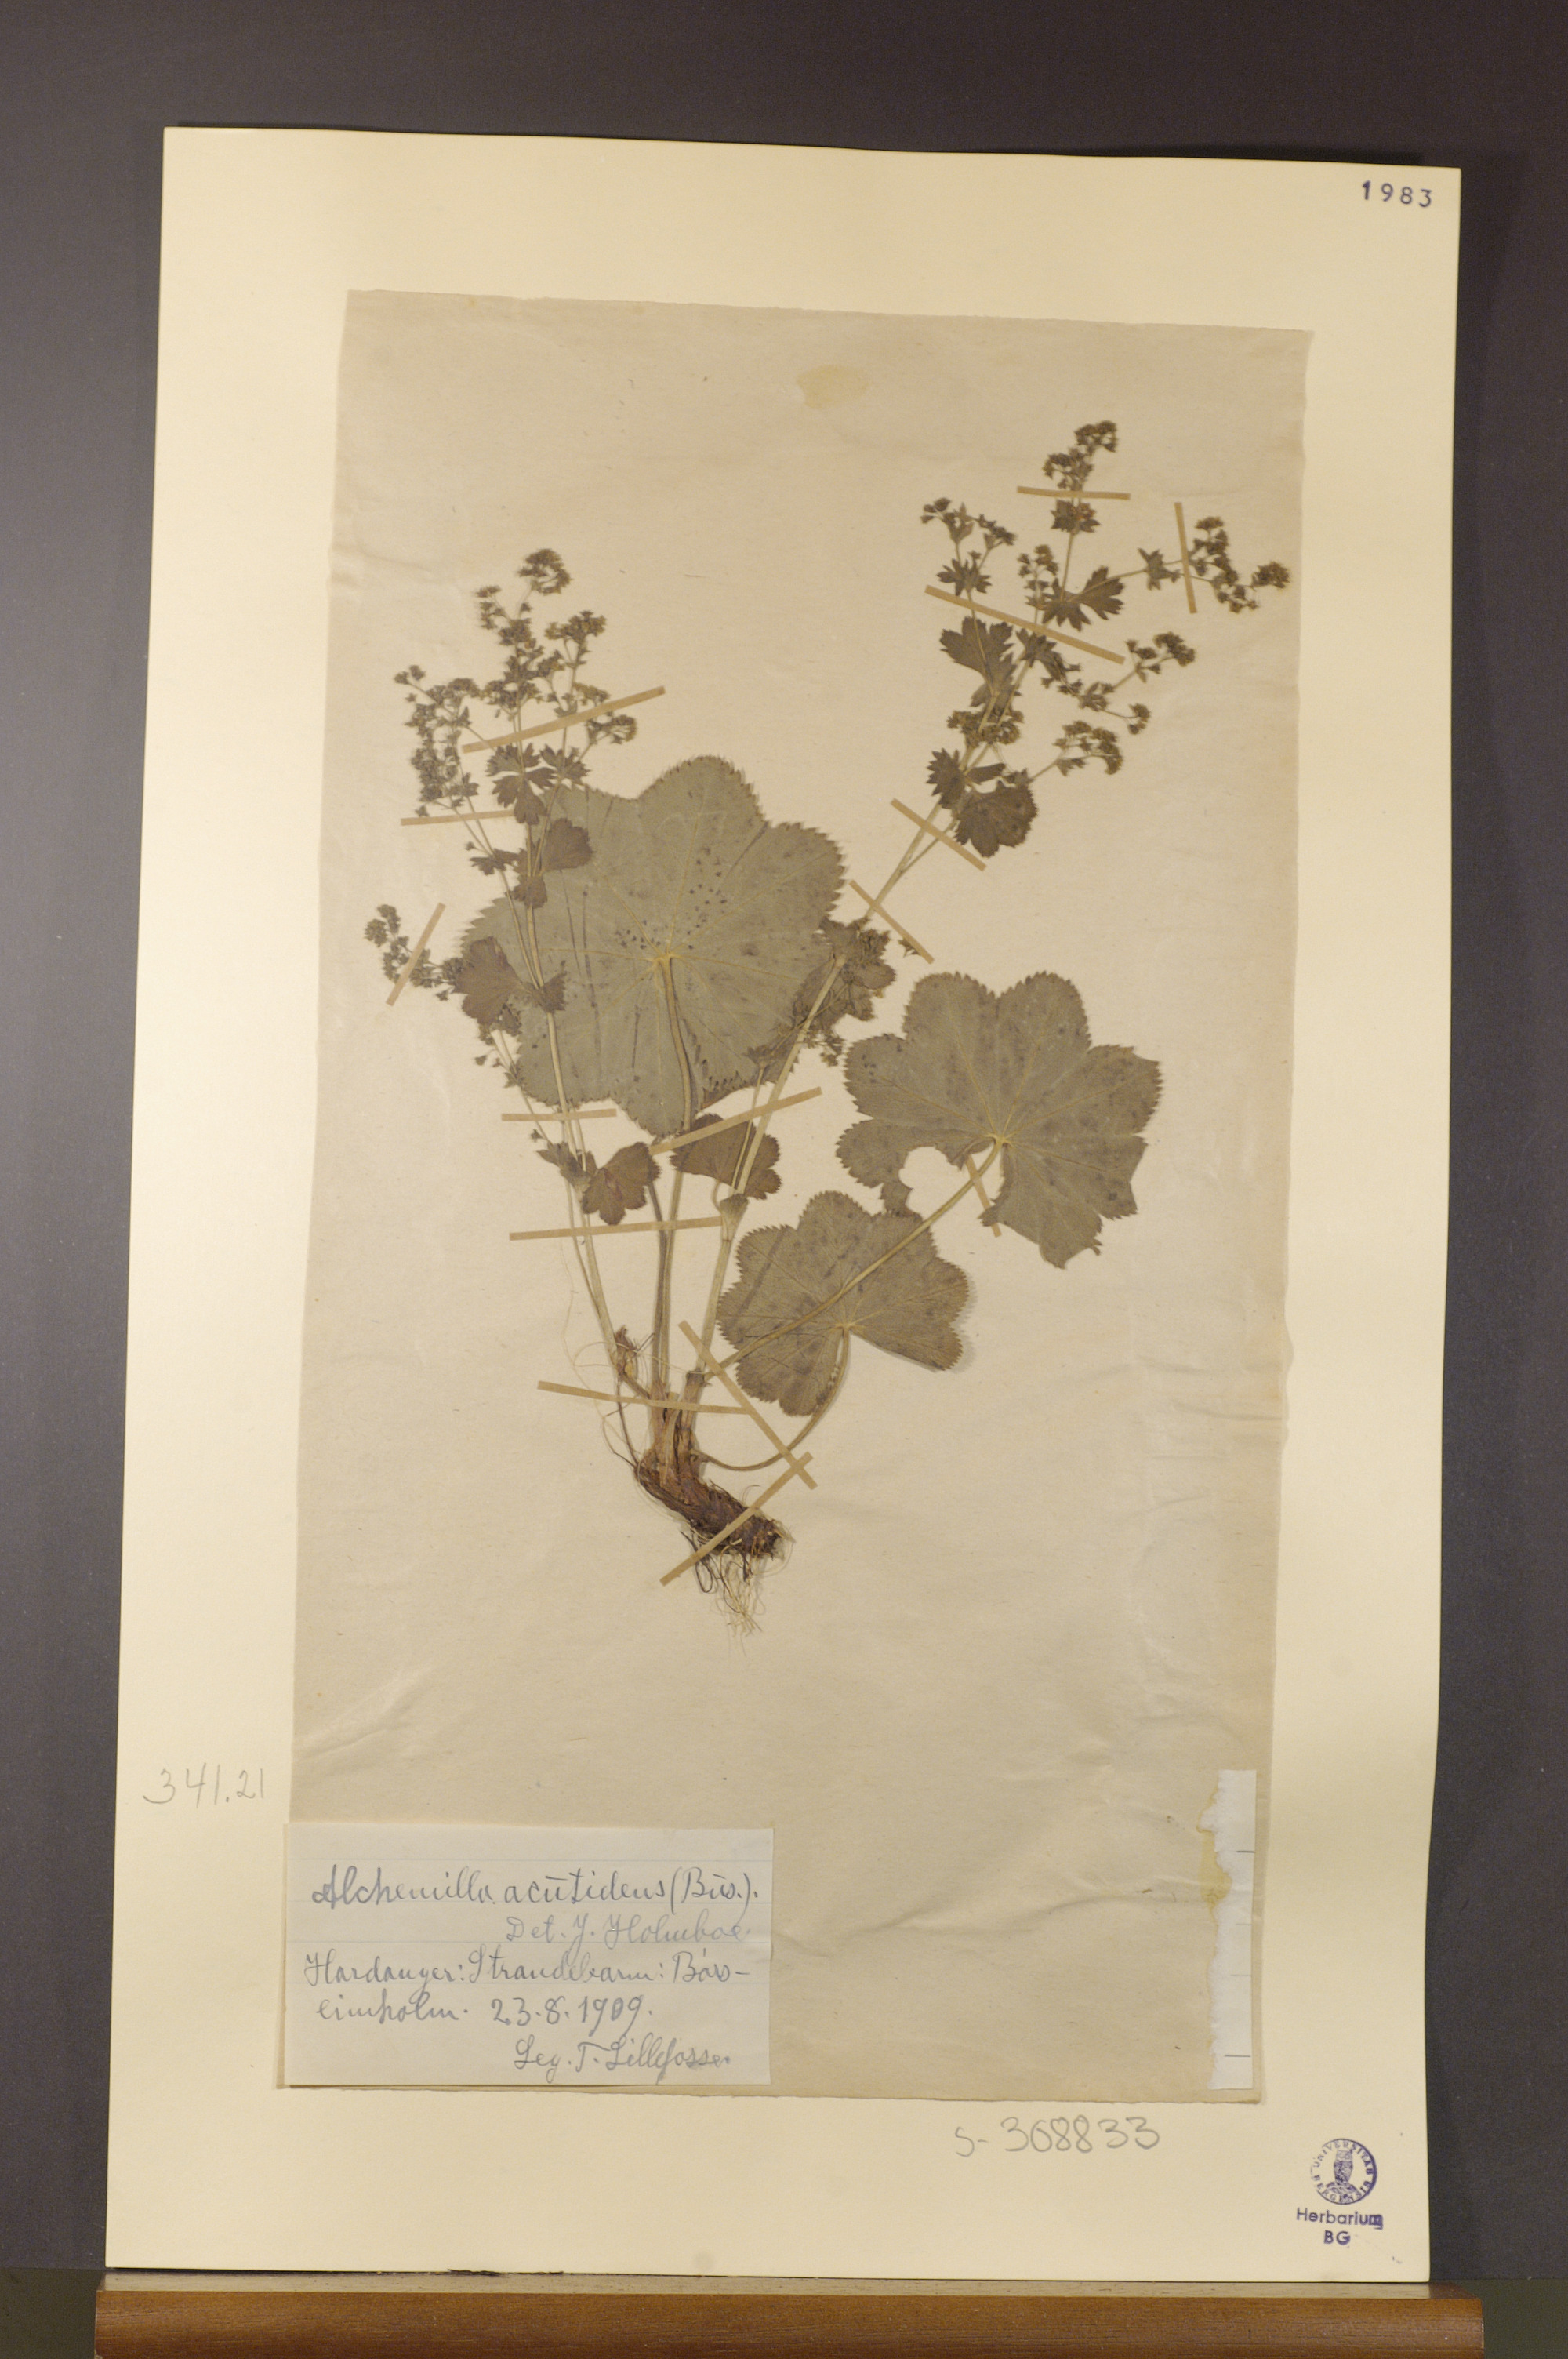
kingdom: Plantae
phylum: Tracheophyta
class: Magnoliopsida
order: Rosales
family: Rosaceae
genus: Alchemilla
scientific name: Alchemilla wichurae
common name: Rock lady's mantle
